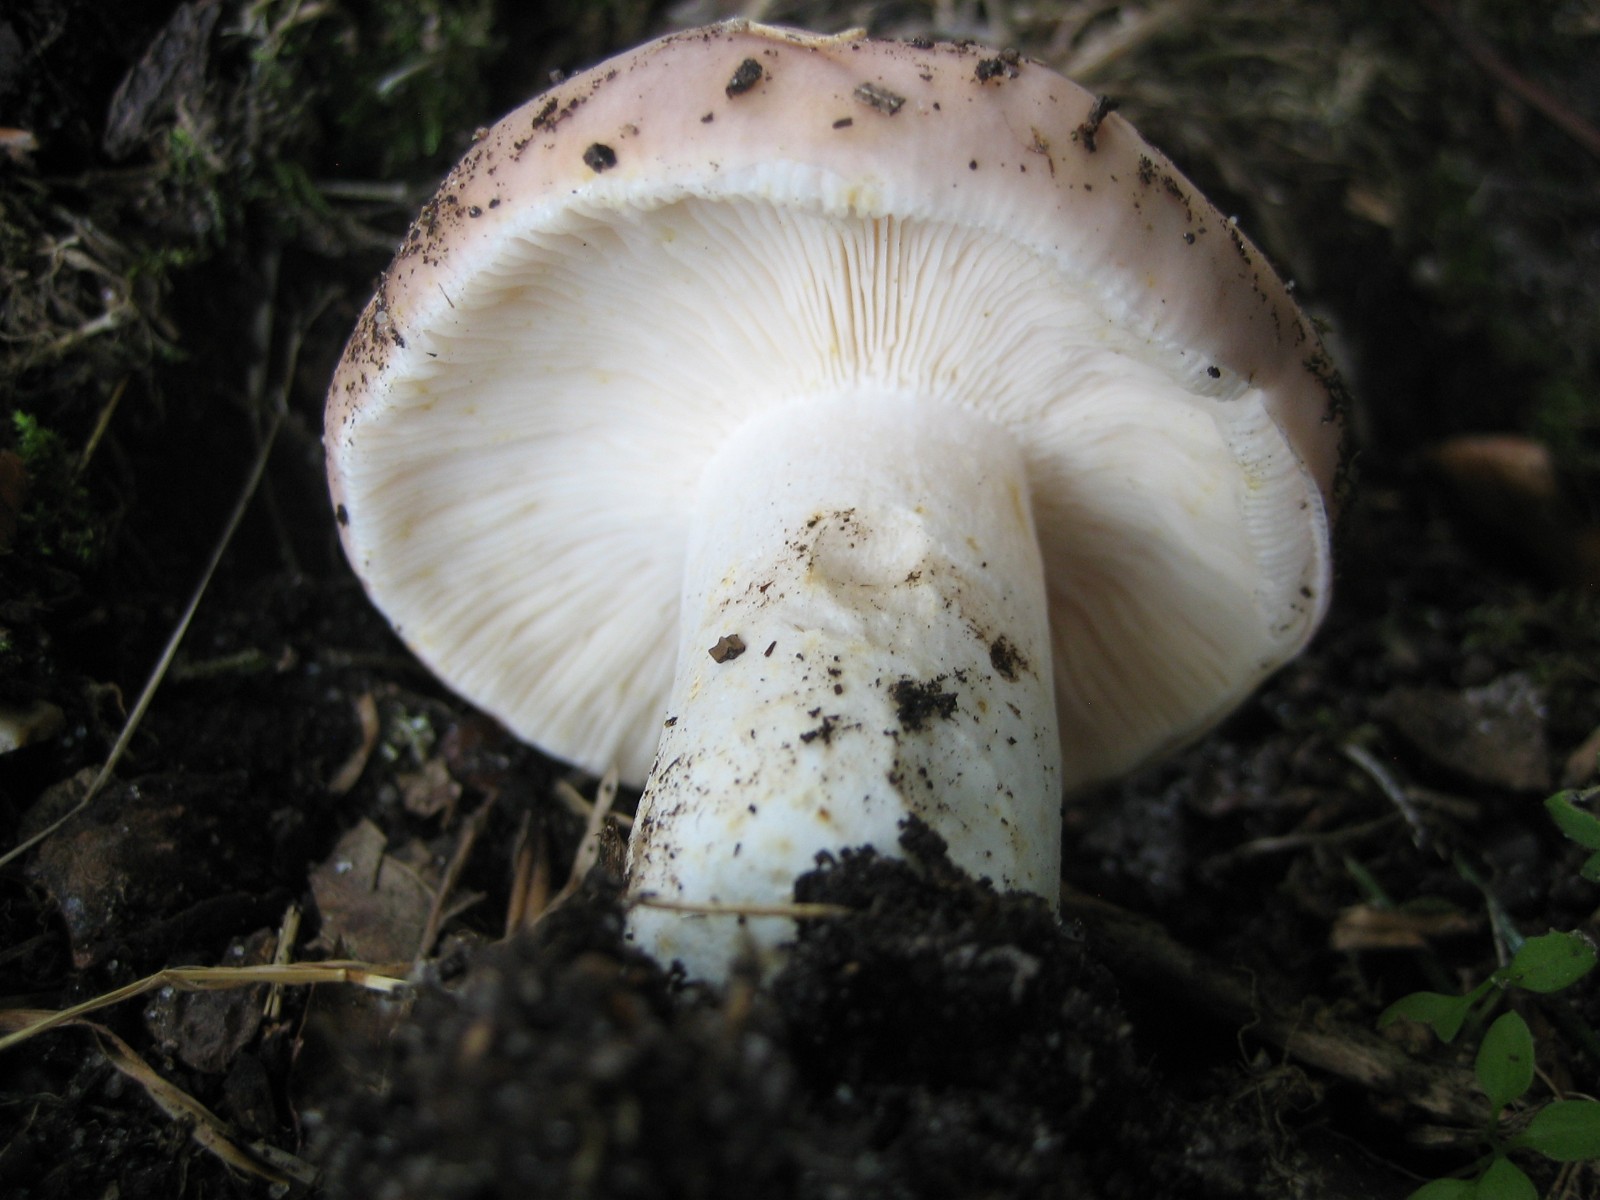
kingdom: Fungi
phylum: Basidiomycota
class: Agaricomycetes
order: Russulales
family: Russulaceae
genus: Russula
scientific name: Russula vesca
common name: spiselig skørhat
